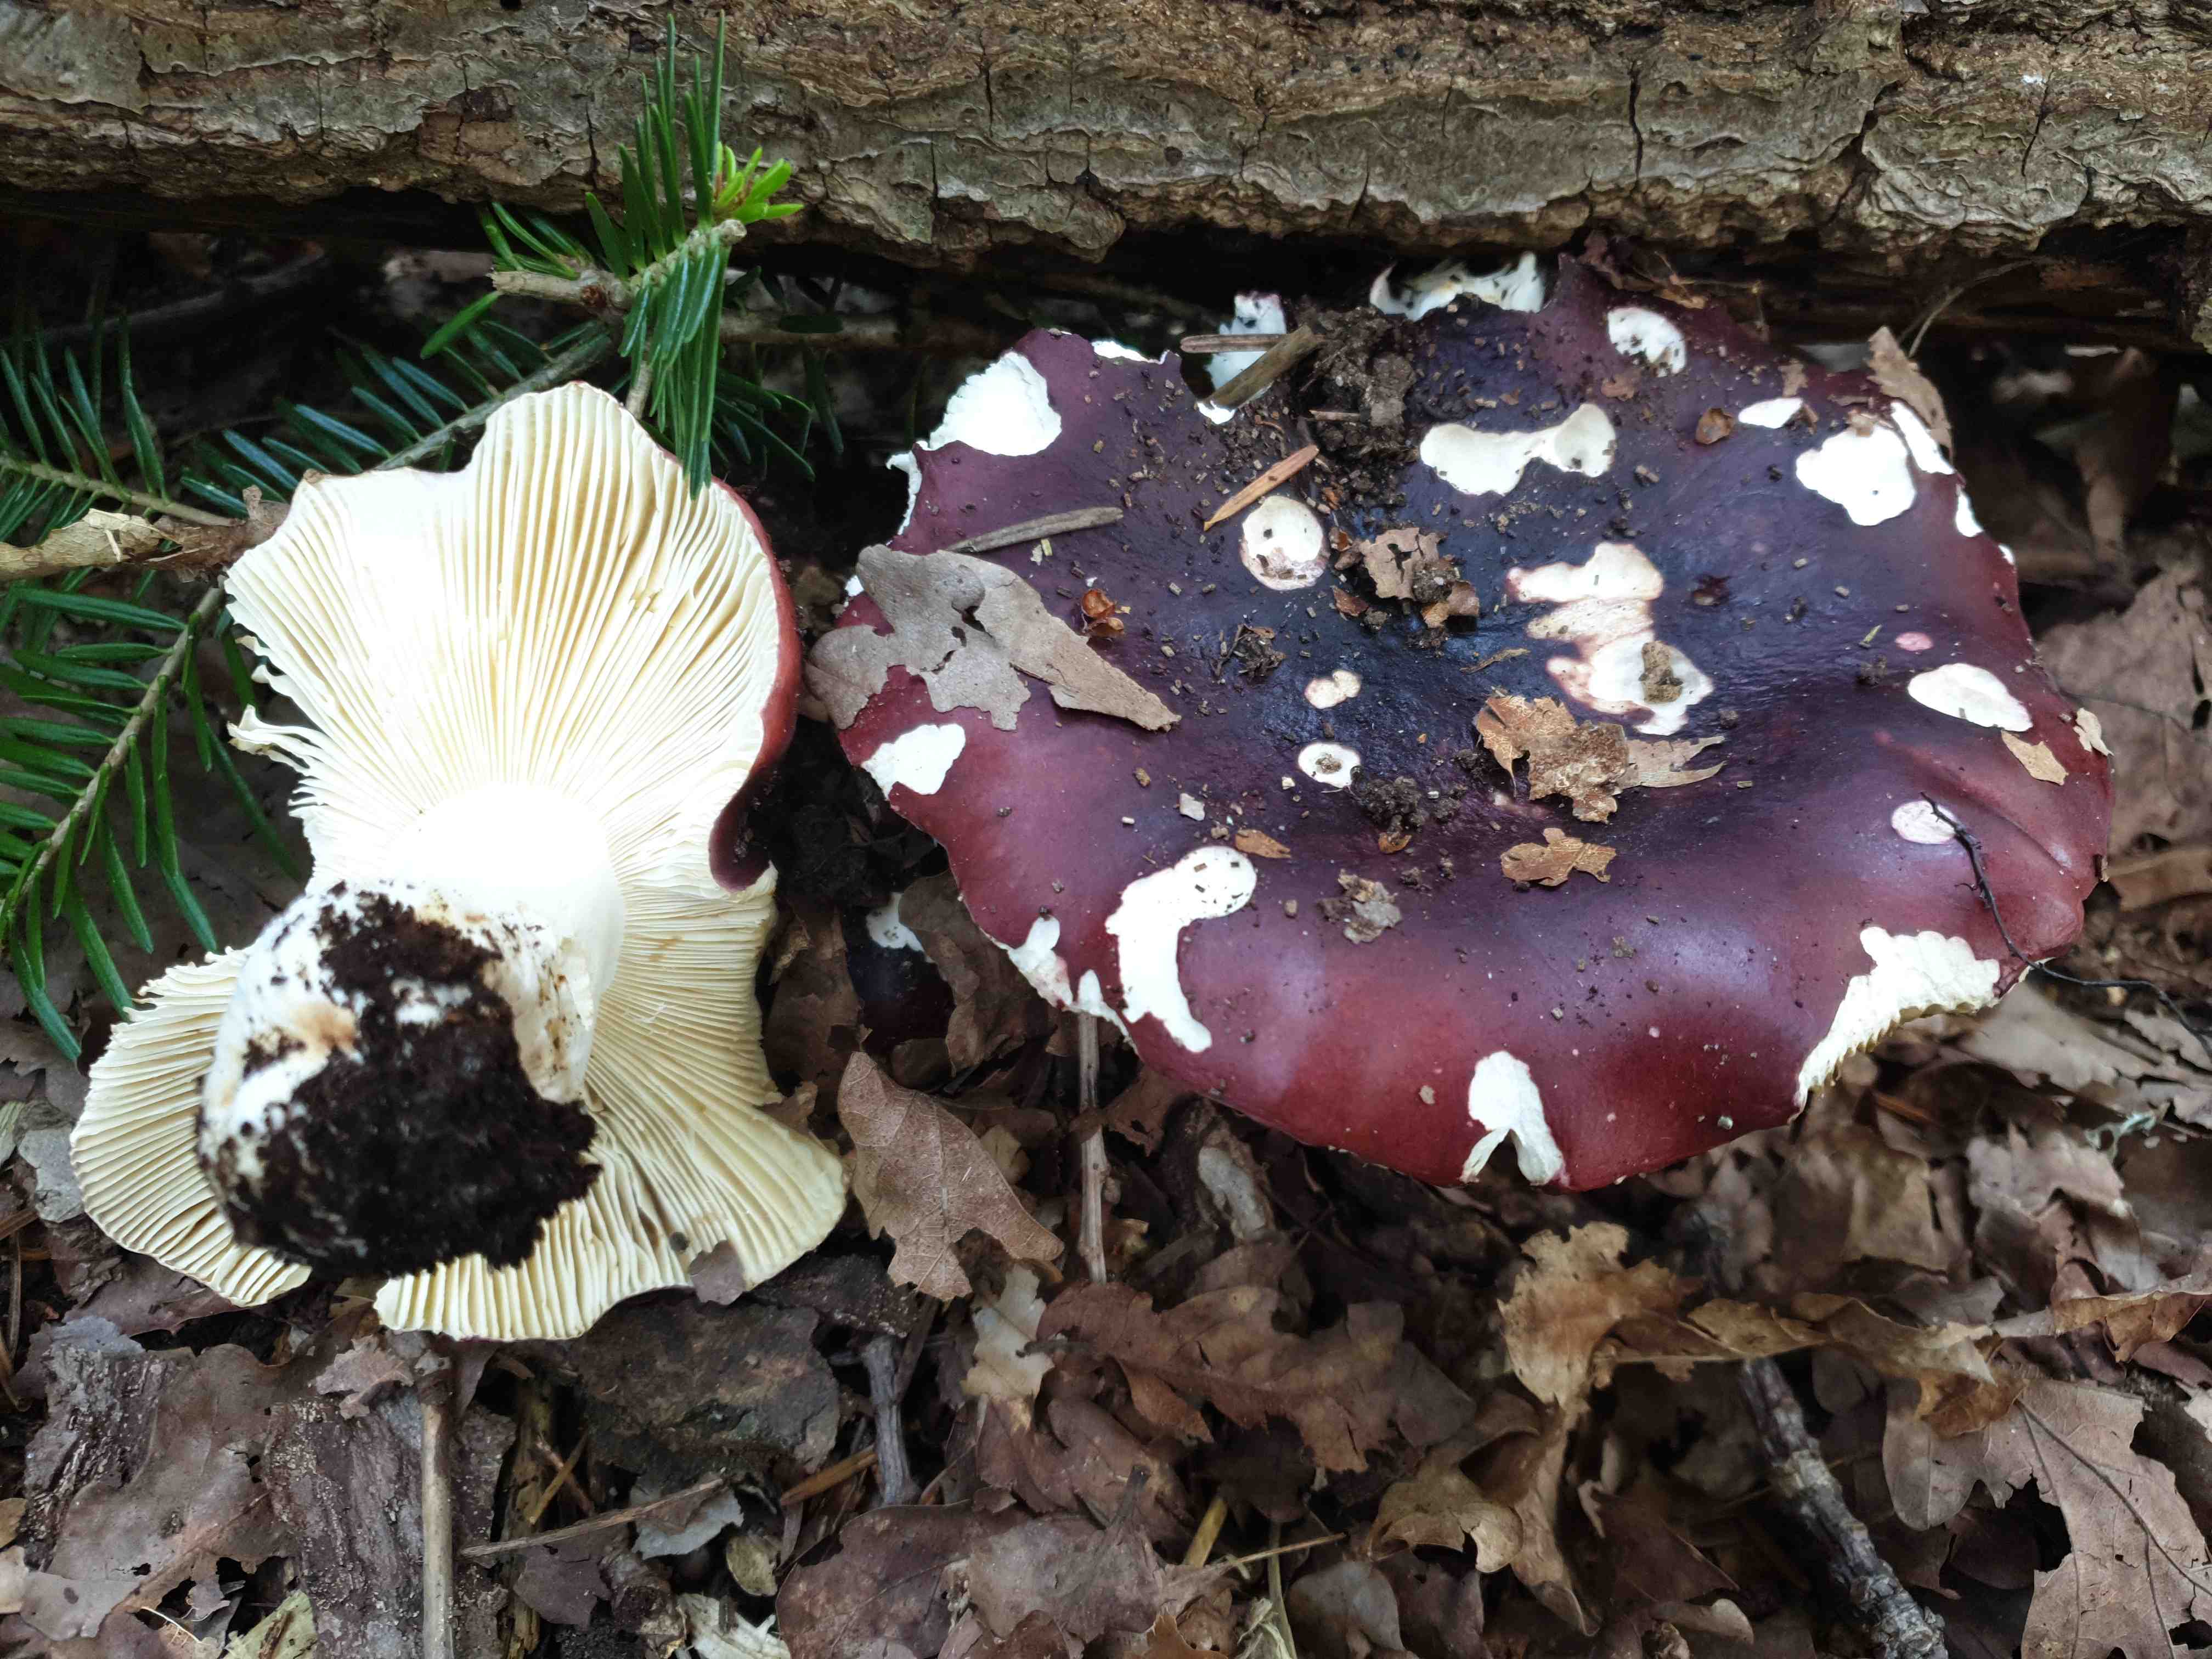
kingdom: Fungi
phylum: Basidiomycota
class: Agaricomycetes
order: Russulales
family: Russulaceae
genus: Russula
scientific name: Russula atropurpurea
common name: purpurbroget skørhat
